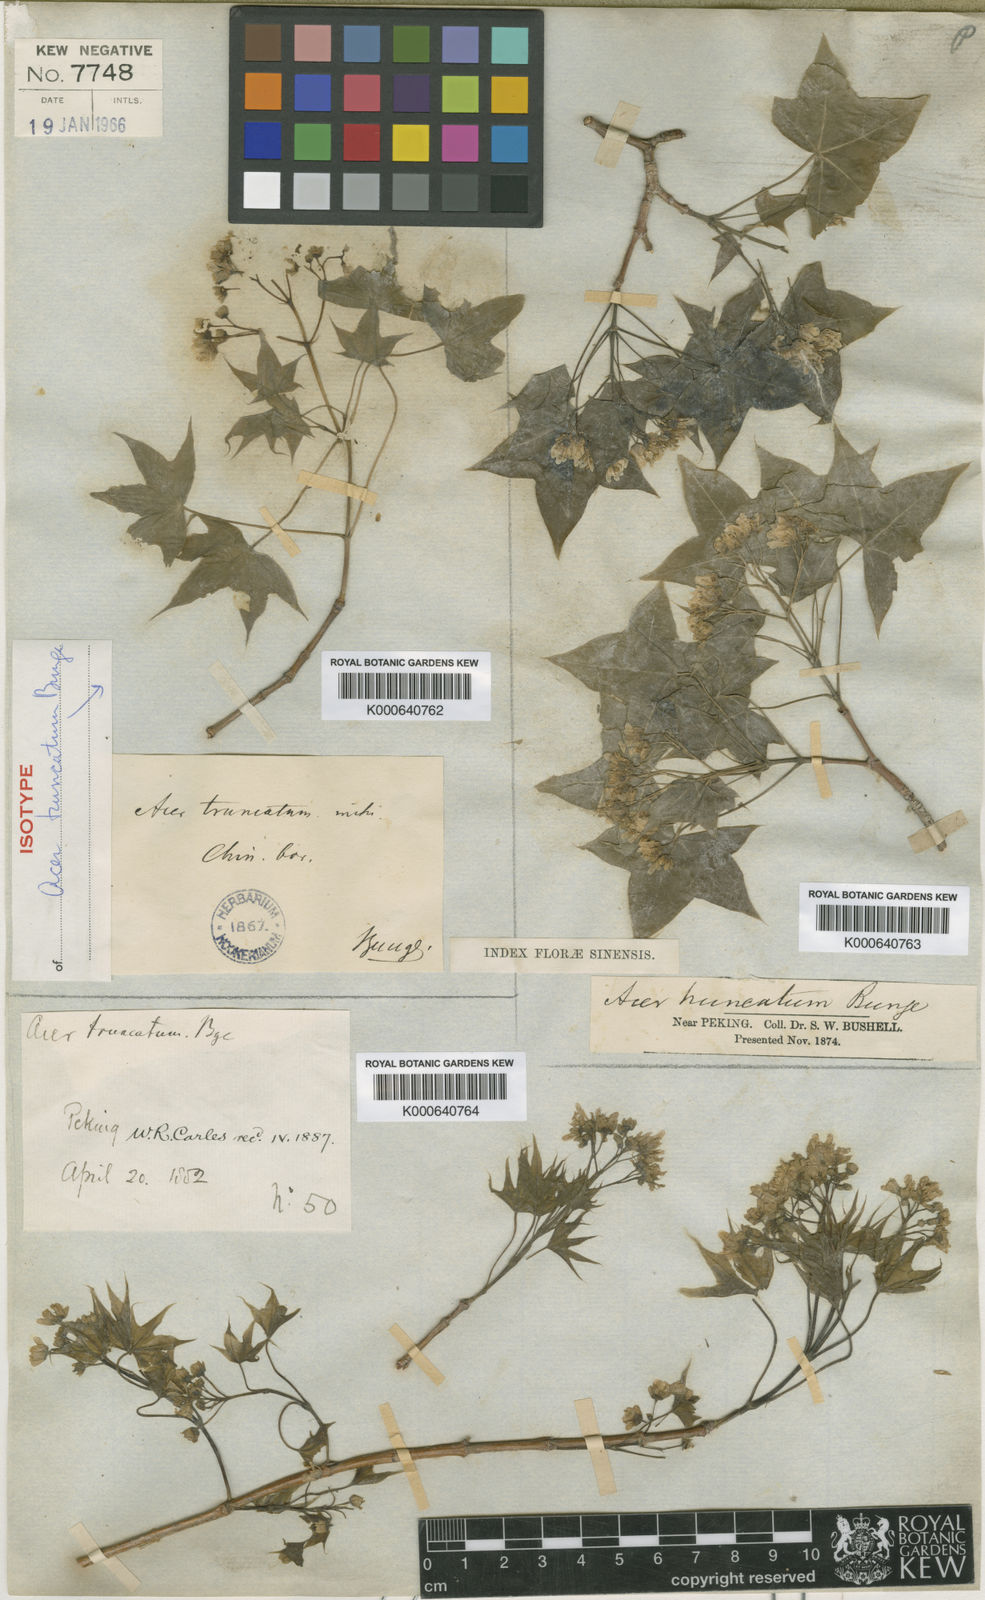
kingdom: Plantae
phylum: Tracheophyta
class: Magnoliopsida
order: Sapindales
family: Sapindaceae
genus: Acer
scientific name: Acer pilosum
